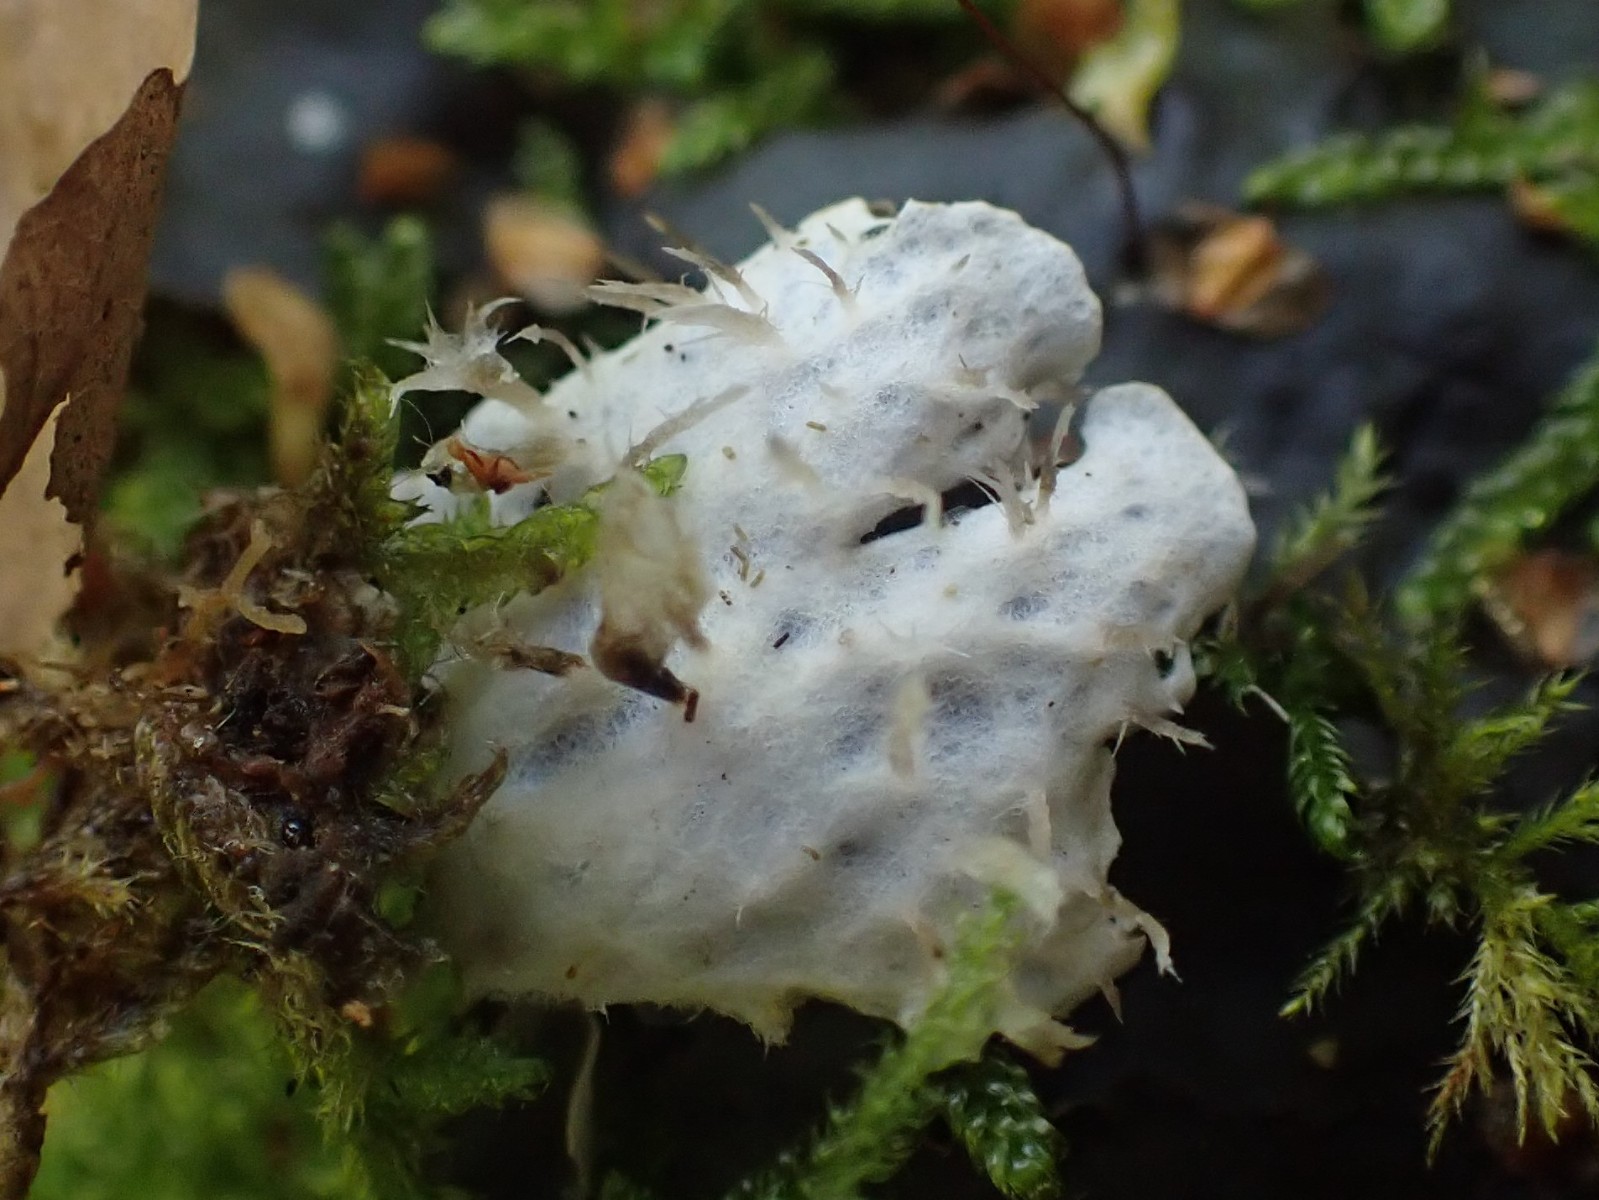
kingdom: Fungi
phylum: Ascomycota
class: Lecanoromycetes
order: Peltigerales
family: Peltigeraceae
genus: Peltigera
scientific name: Peltigera hymenina
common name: hinde-skjoldlav
